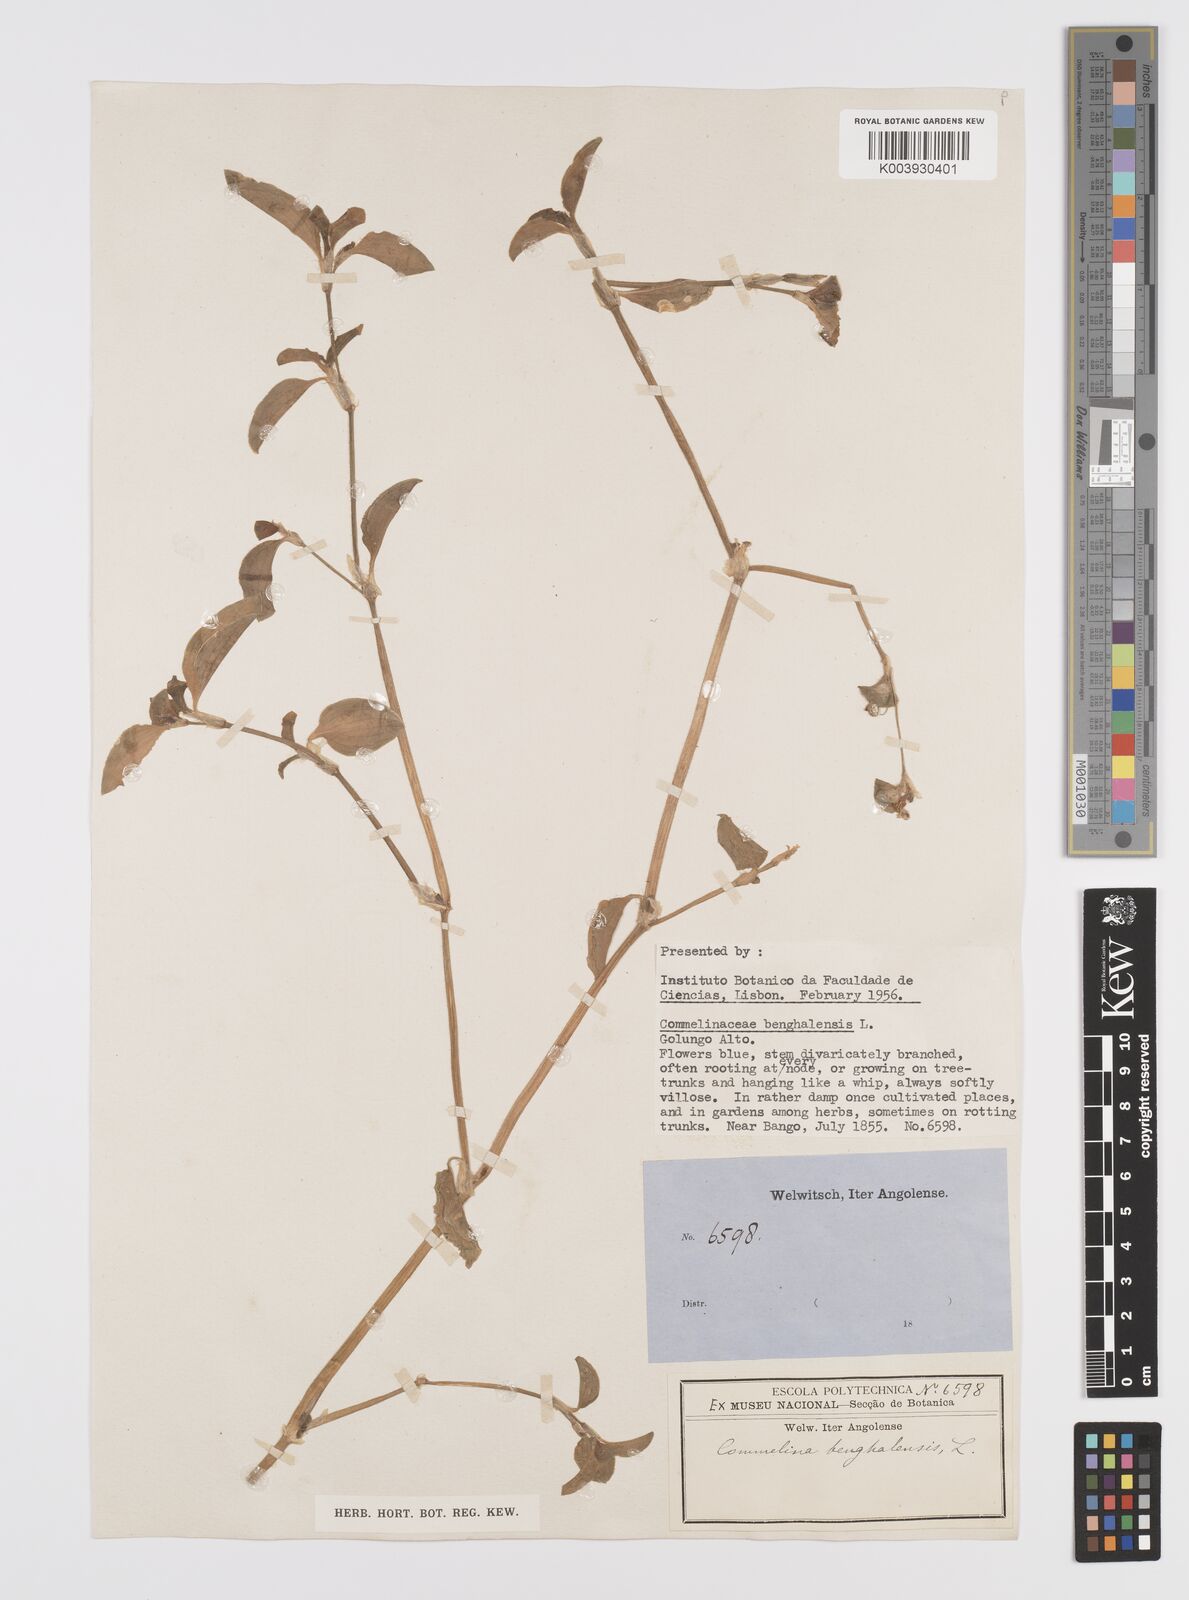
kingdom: Plantae
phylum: Tracheophyta
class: Liliopsida
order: Commelinales
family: Commelinaceae
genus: Commelina
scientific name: Commelina benghalensis
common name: Jio
